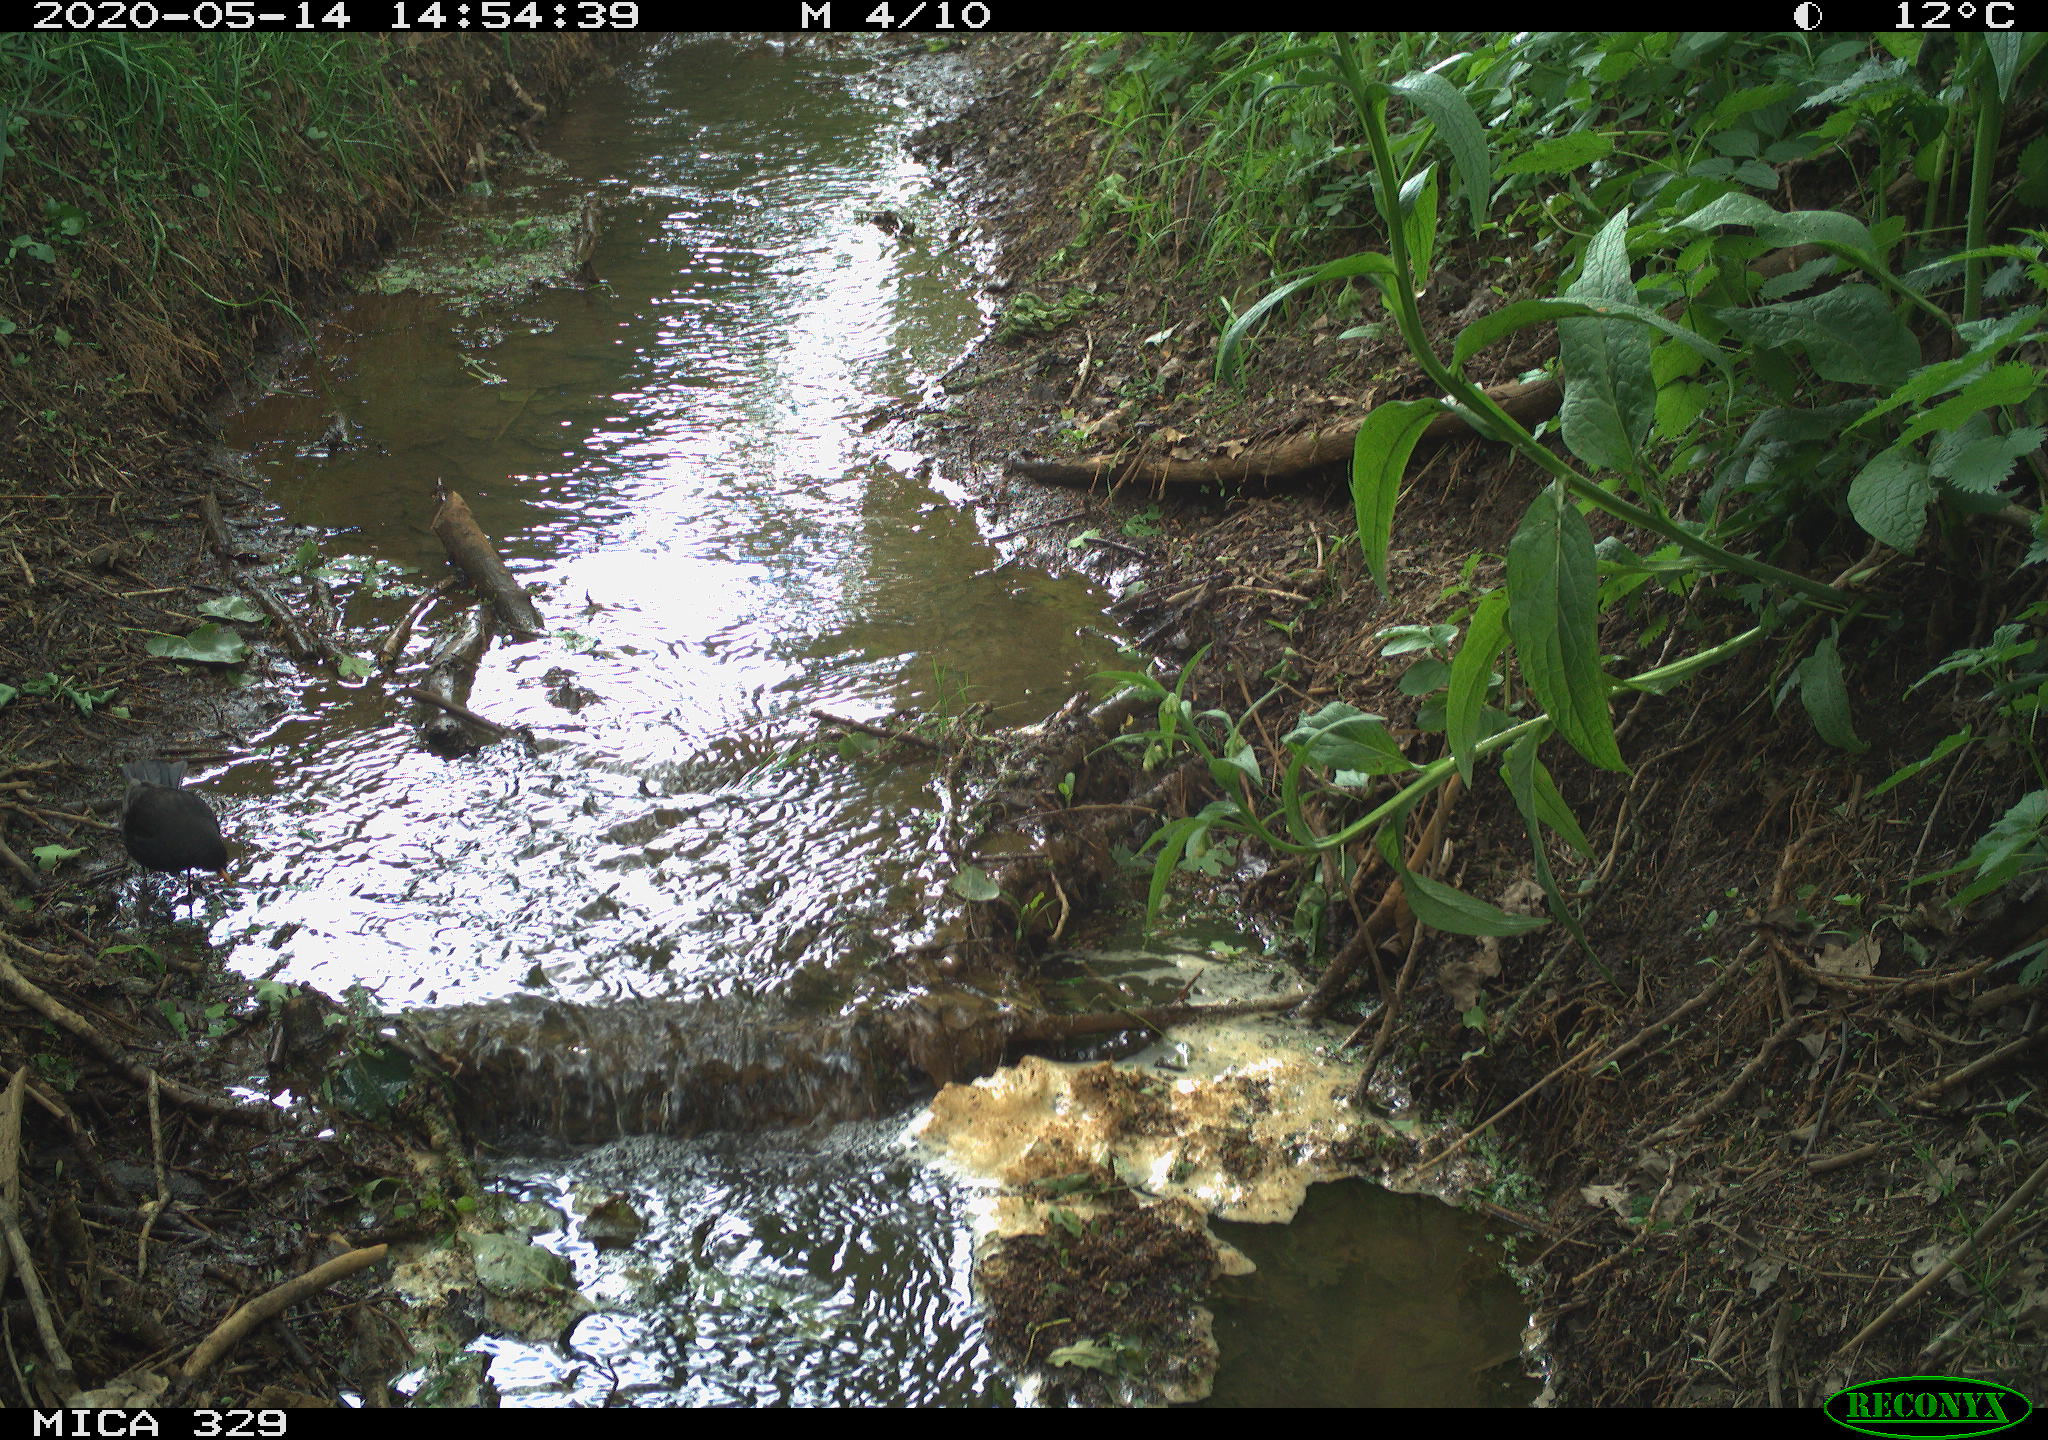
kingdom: Animalia
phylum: Chordata
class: Aves
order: Passeriformes
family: Turdidae
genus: Turdus
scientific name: Turdus merula
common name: Common blackbird
